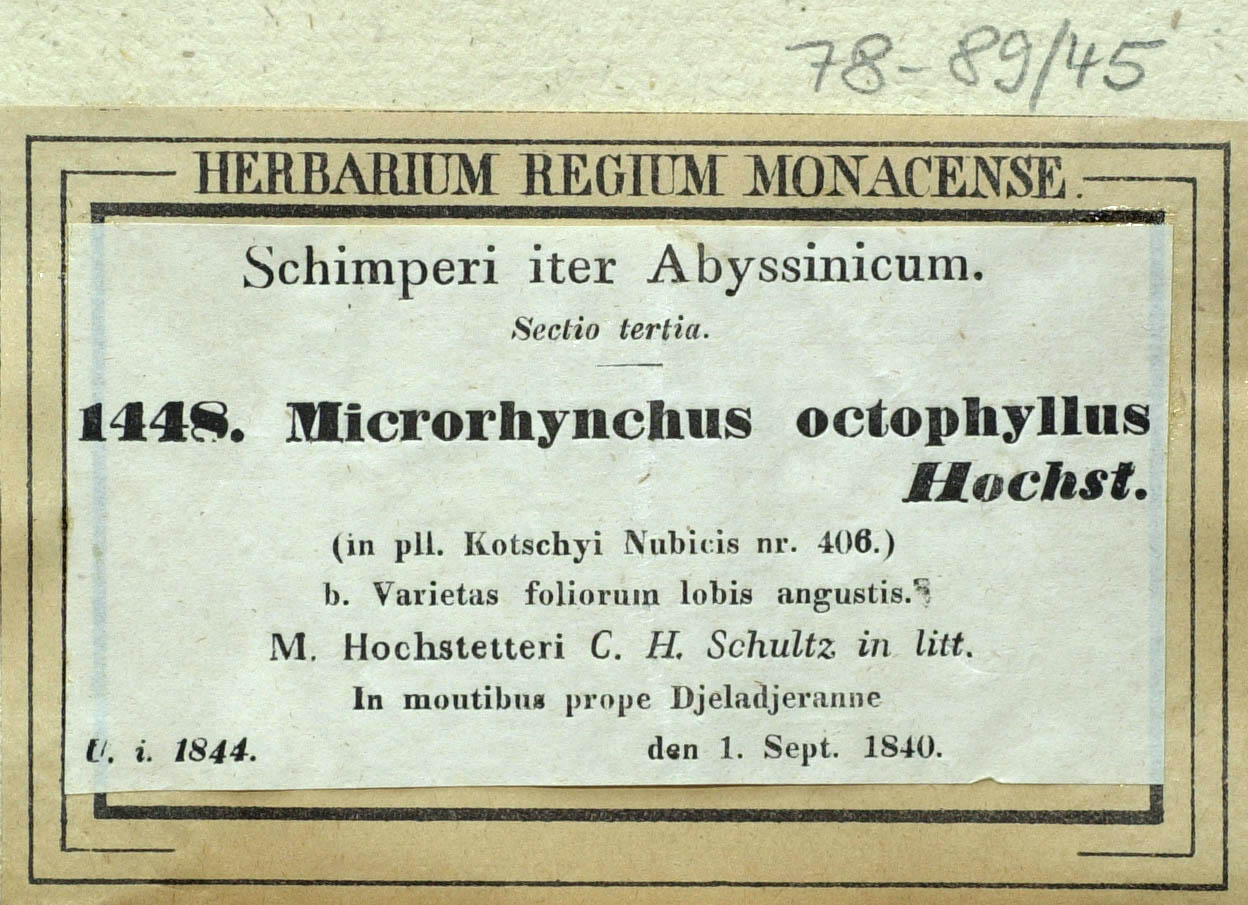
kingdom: Plantae
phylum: Tracheophyta
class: Magnoliopsida
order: Asterales
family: Asteraceae
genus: Launaea
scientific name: Launaea petitiana
